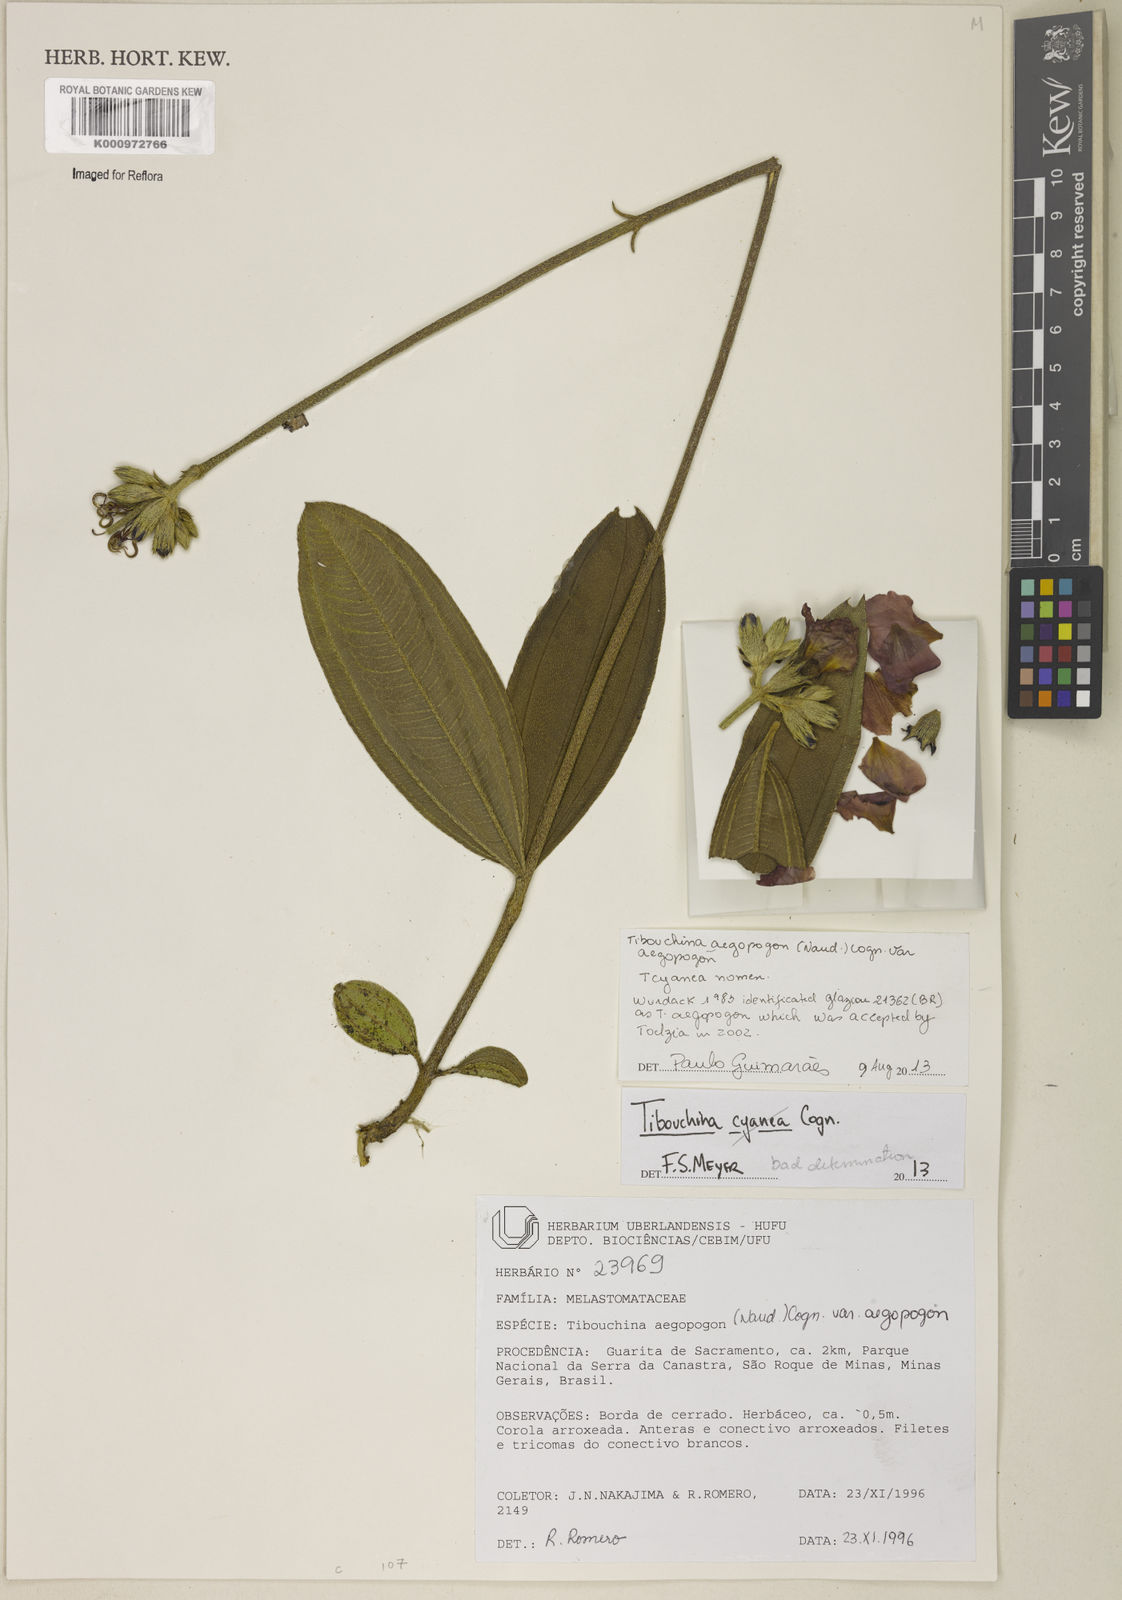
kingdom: Plantae
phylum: Tracheophyta
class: Magnoliopsida
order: Myrtales
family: Melastomataceae
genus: Pleroma
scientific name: Pleroma aegopogon
